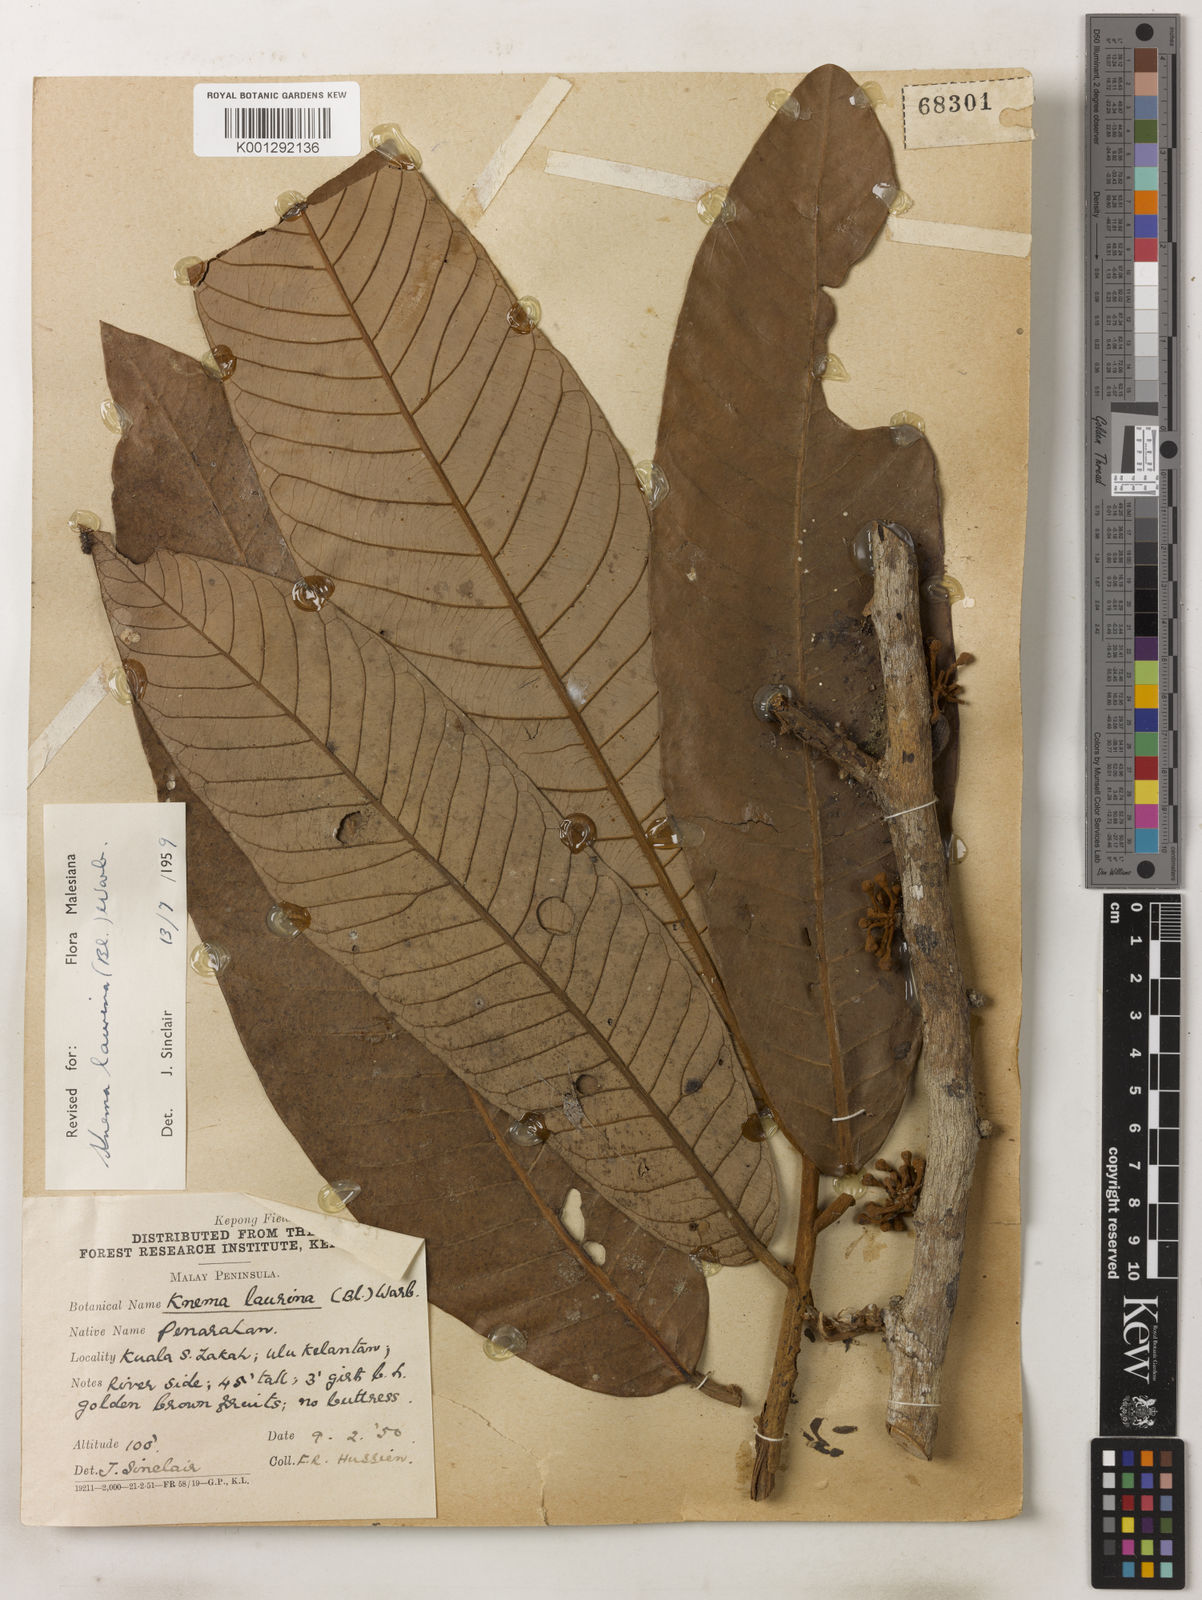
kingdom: Plantae
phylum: Tracheophyta
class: Magnoliopsida
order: Magnoliales
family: Myristicaceae
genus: Knema
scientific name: Knema laurina
